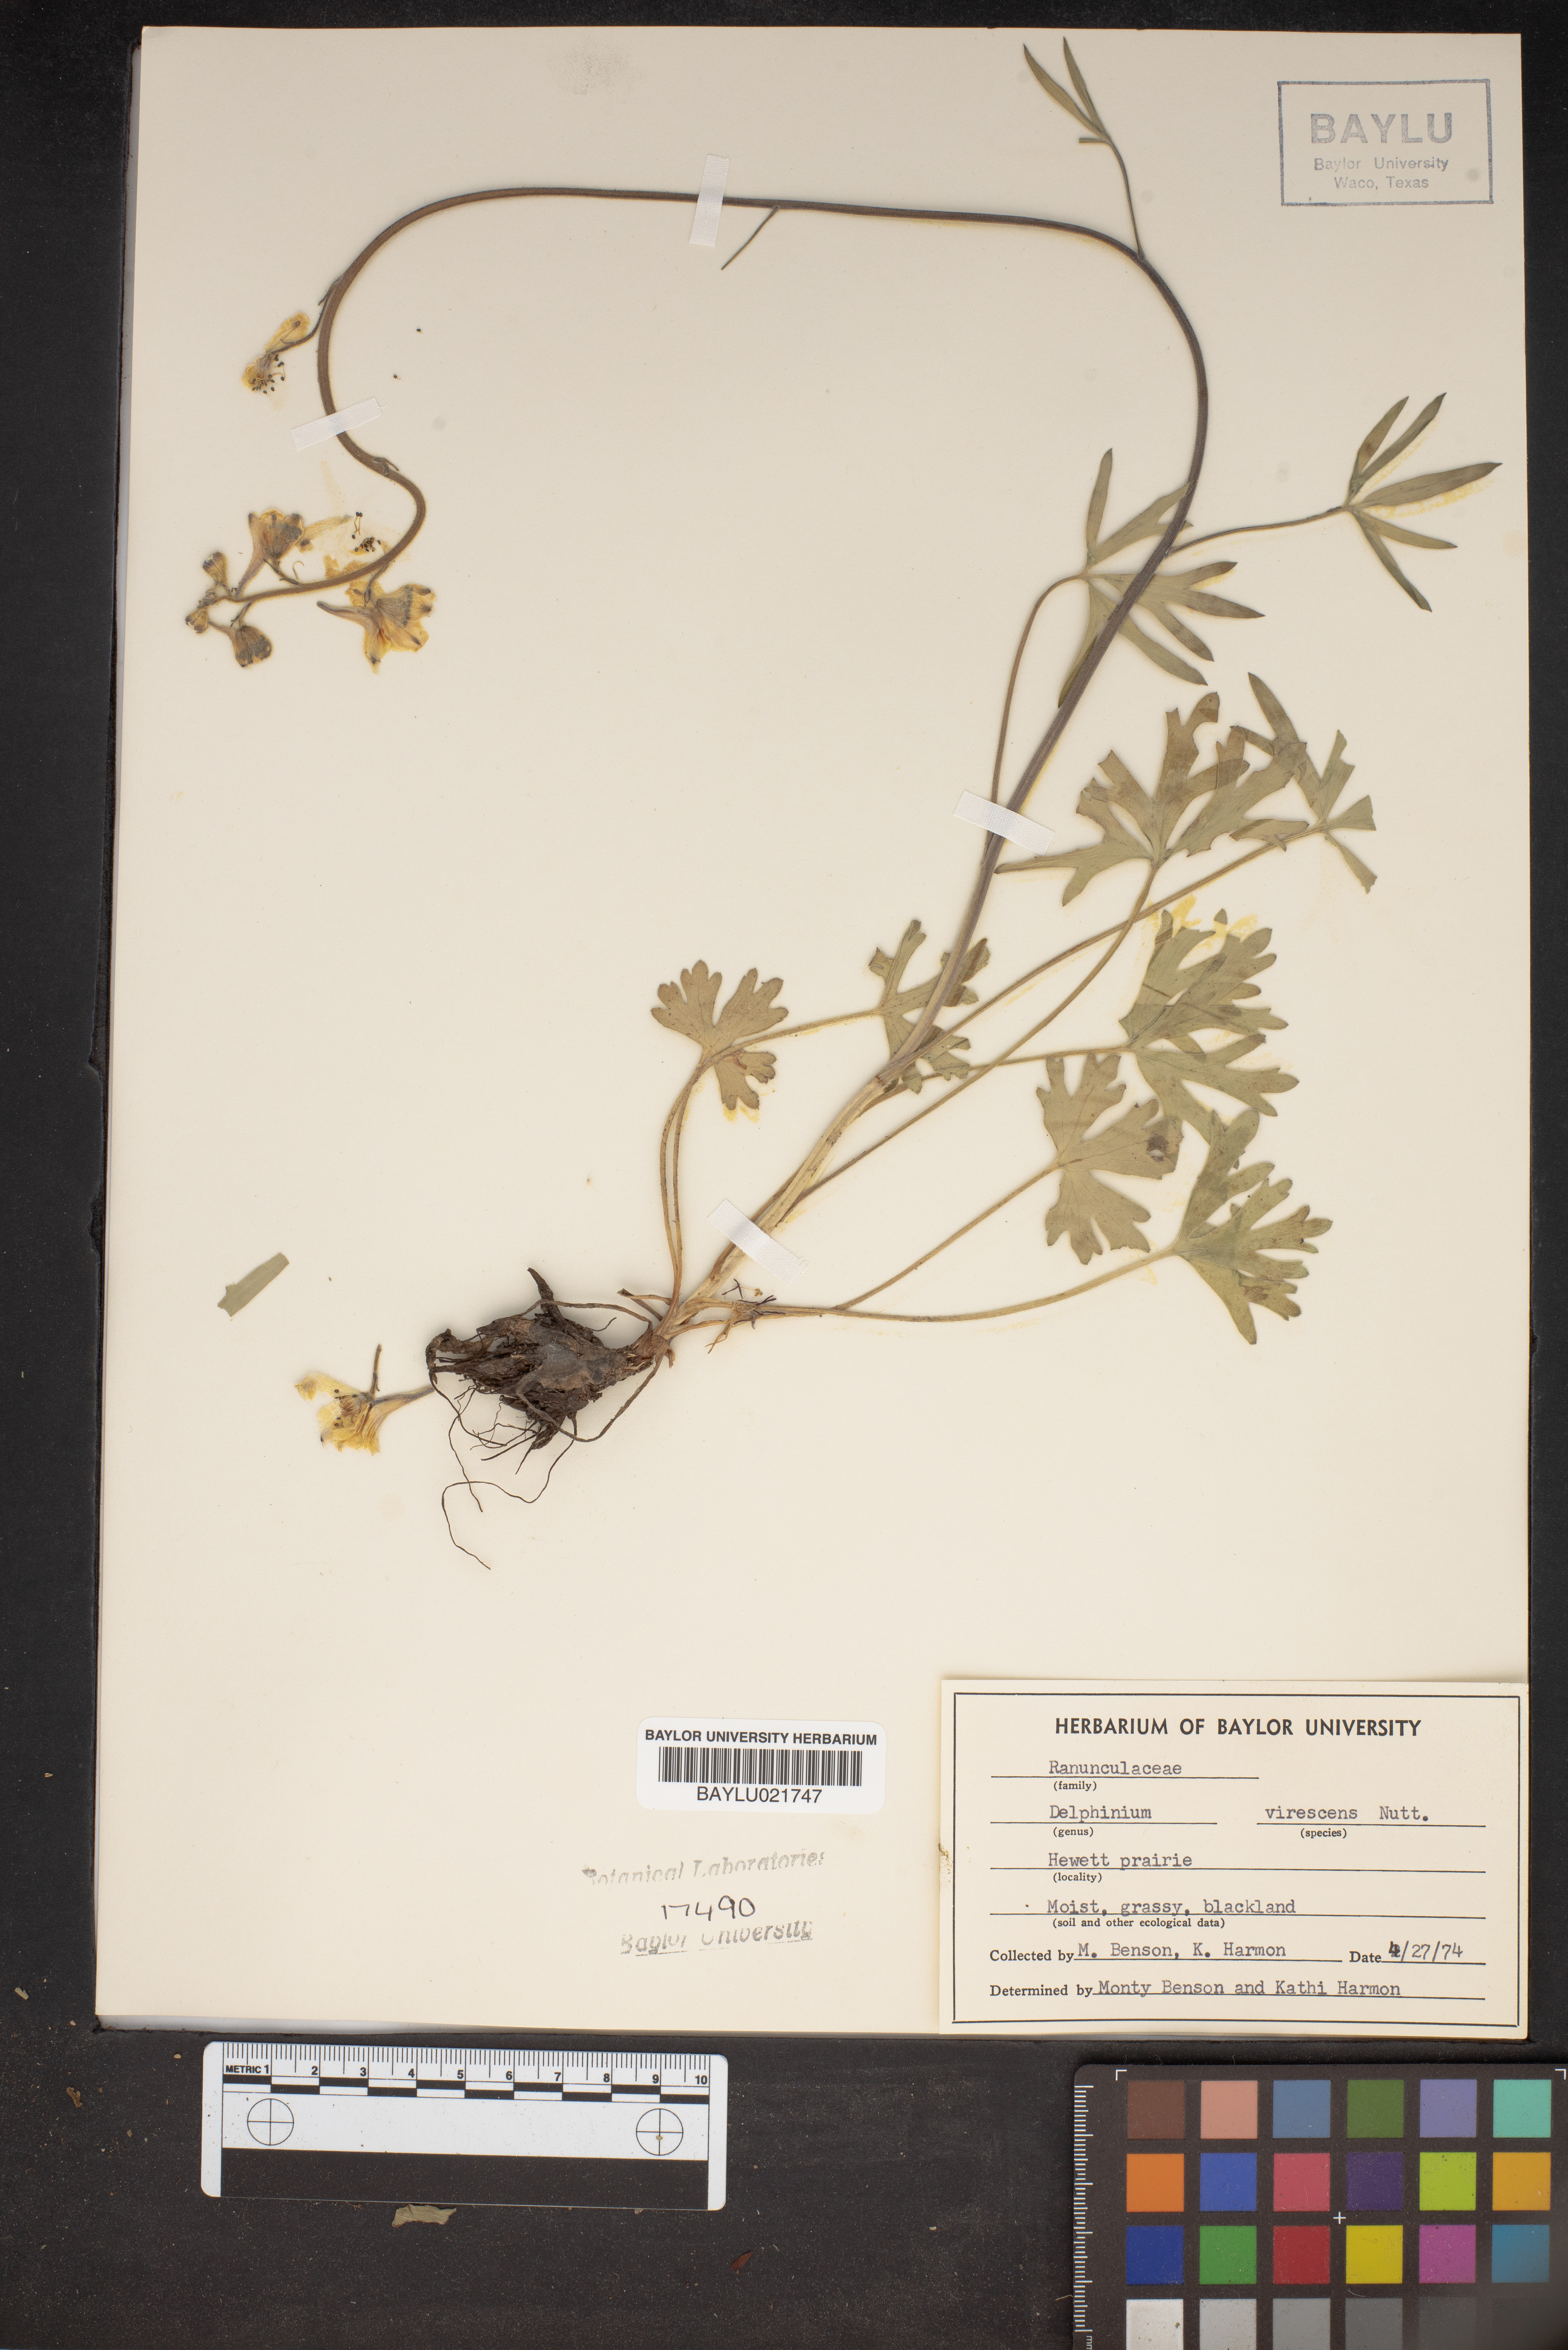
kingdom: Plantae
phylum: Tracheophyta
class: Magnoliopsida
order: Ranunculales
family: Ranunculaceae
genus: Delphinium
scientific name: Delphinium carolinianum
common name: Carolina larkspur
